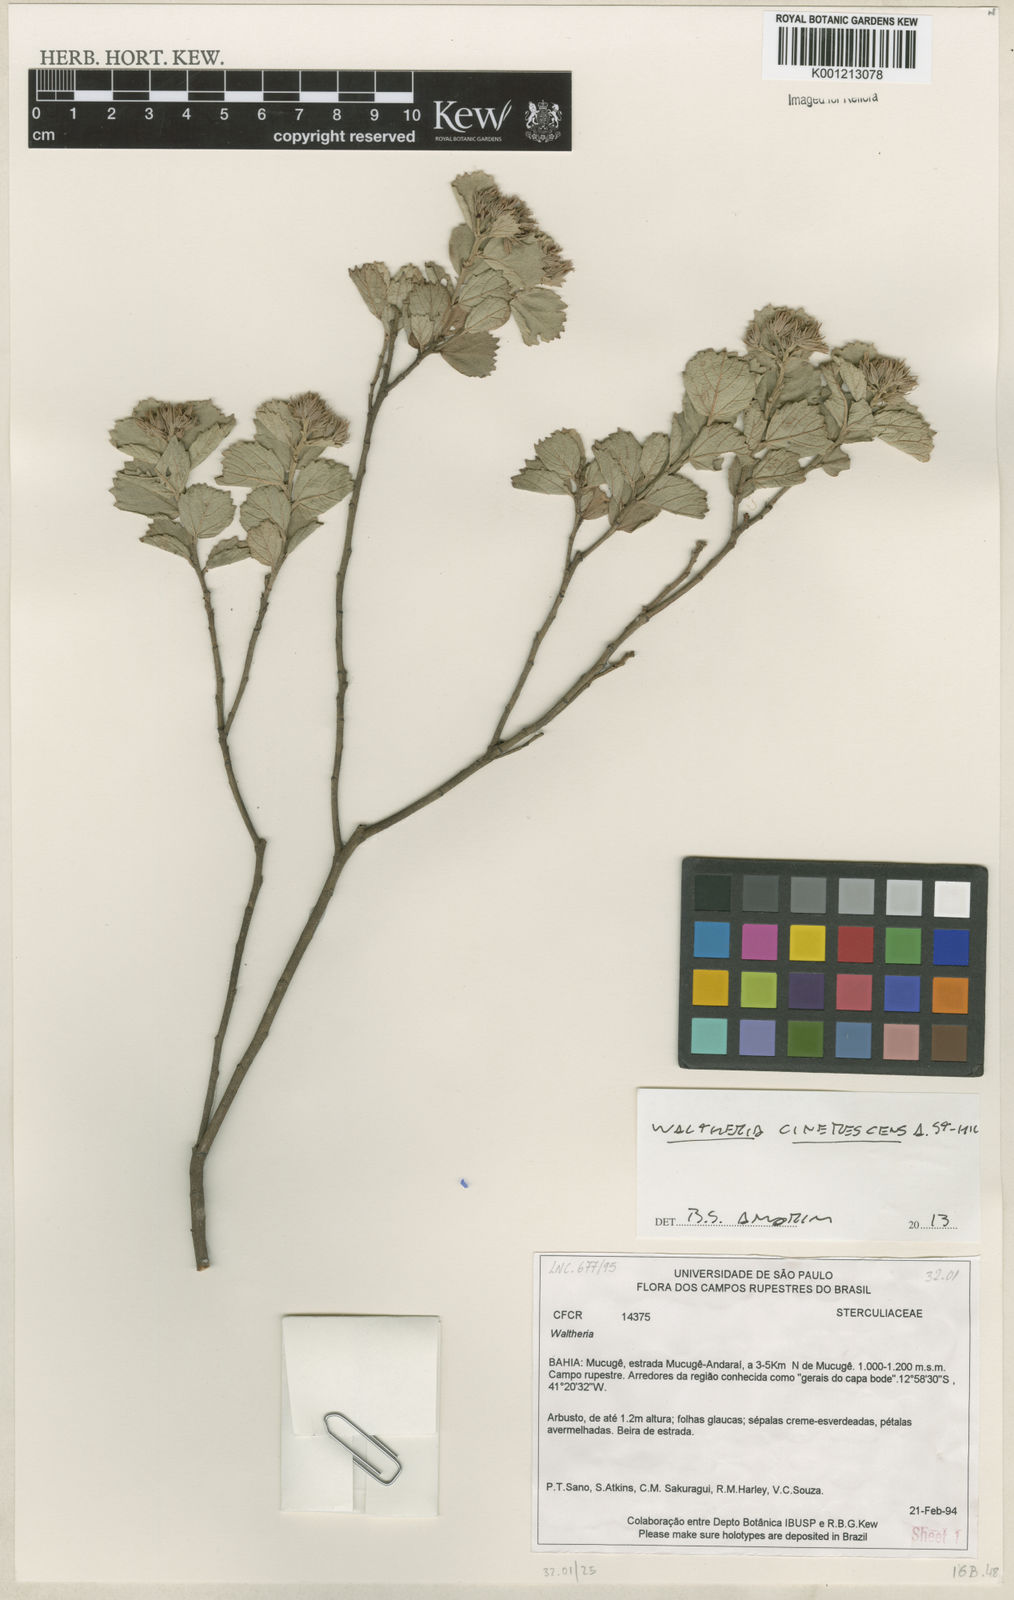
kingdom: Plantae
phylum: Tracheophyta
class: Magnoliopsida
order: Malvales
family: Malvaceae
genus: Waltheria
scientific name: Waltheria cinerescens
